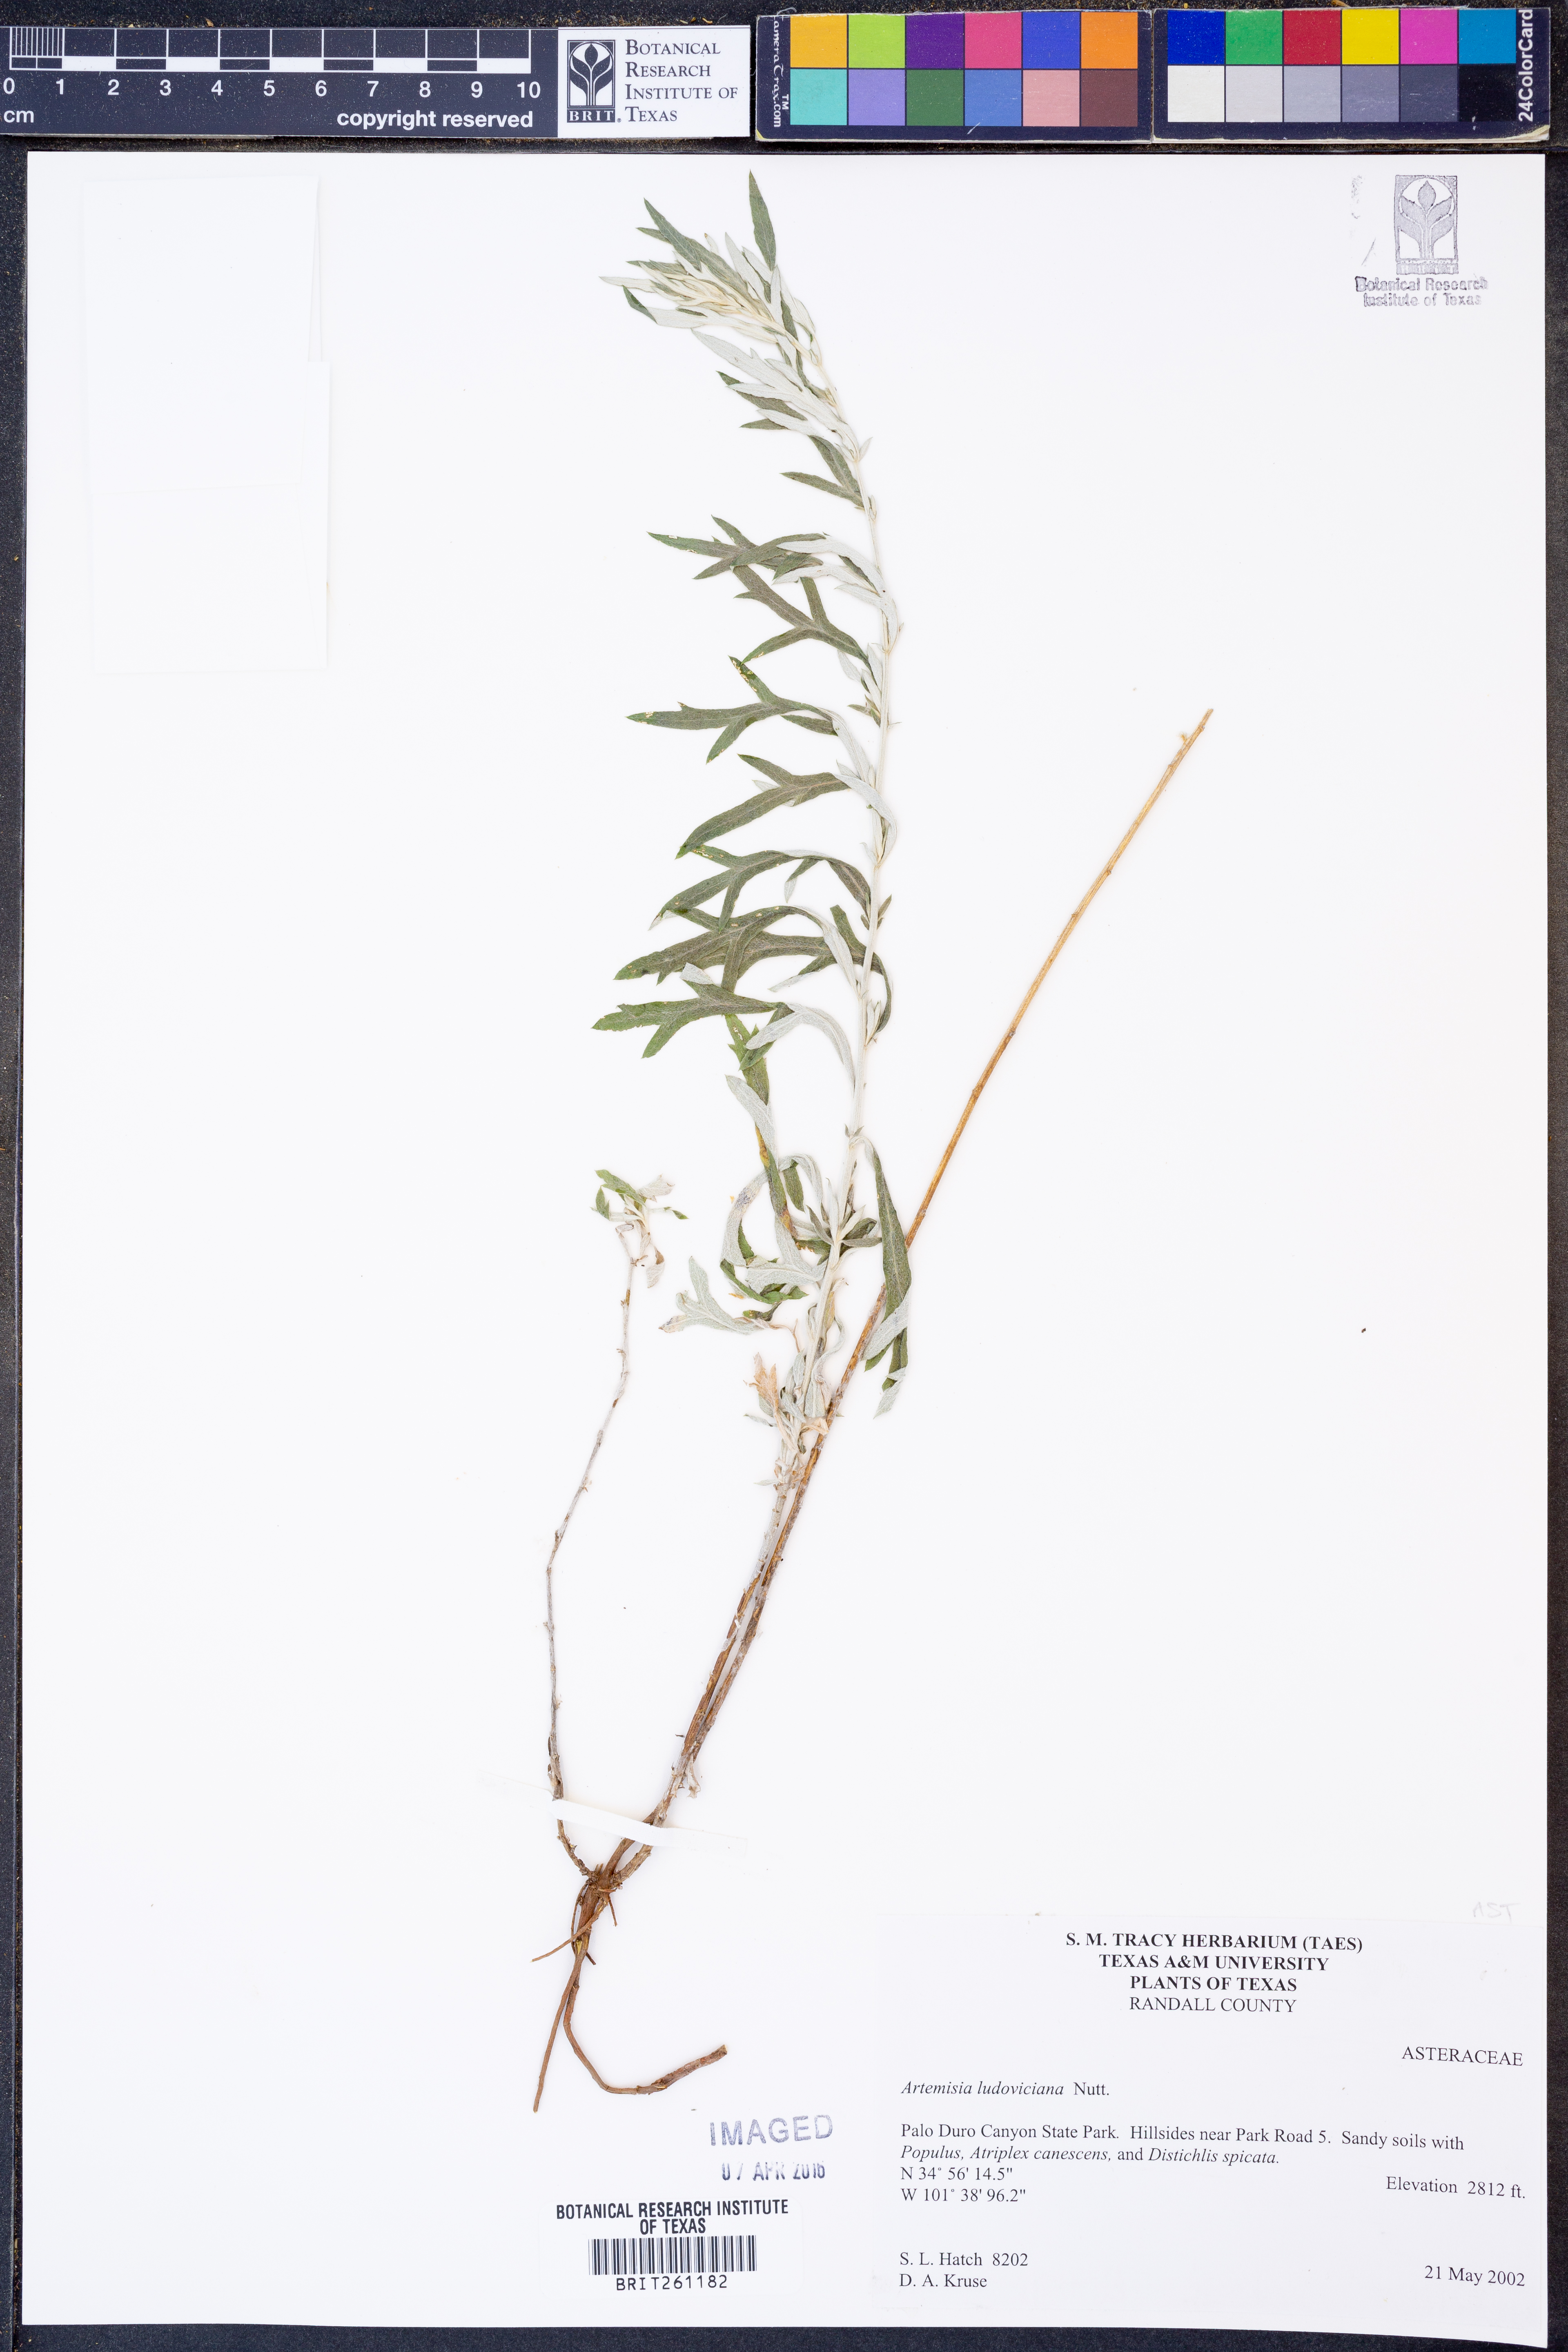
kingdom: Plantae
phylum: Tracheophyta
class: Magnoliopsida
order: Asterales
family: Asteraceae
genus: Artemisia
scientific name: Artemisia ludoviciana
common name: Western mugwort
